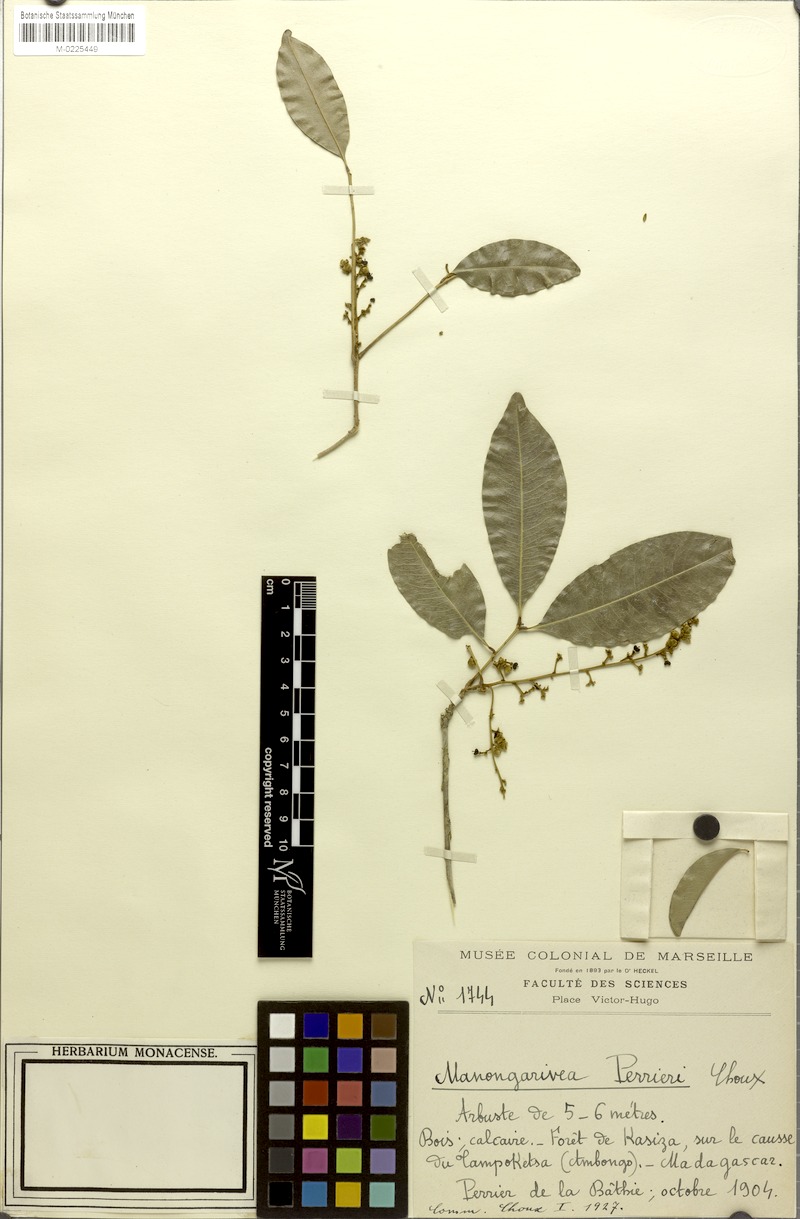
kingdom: Plantae
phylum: Tracheophyta
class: Magnoliopsida
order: Sapindales
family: Sapindaceae
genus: Lepisanthes
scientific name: Lepisanthes perrieri
